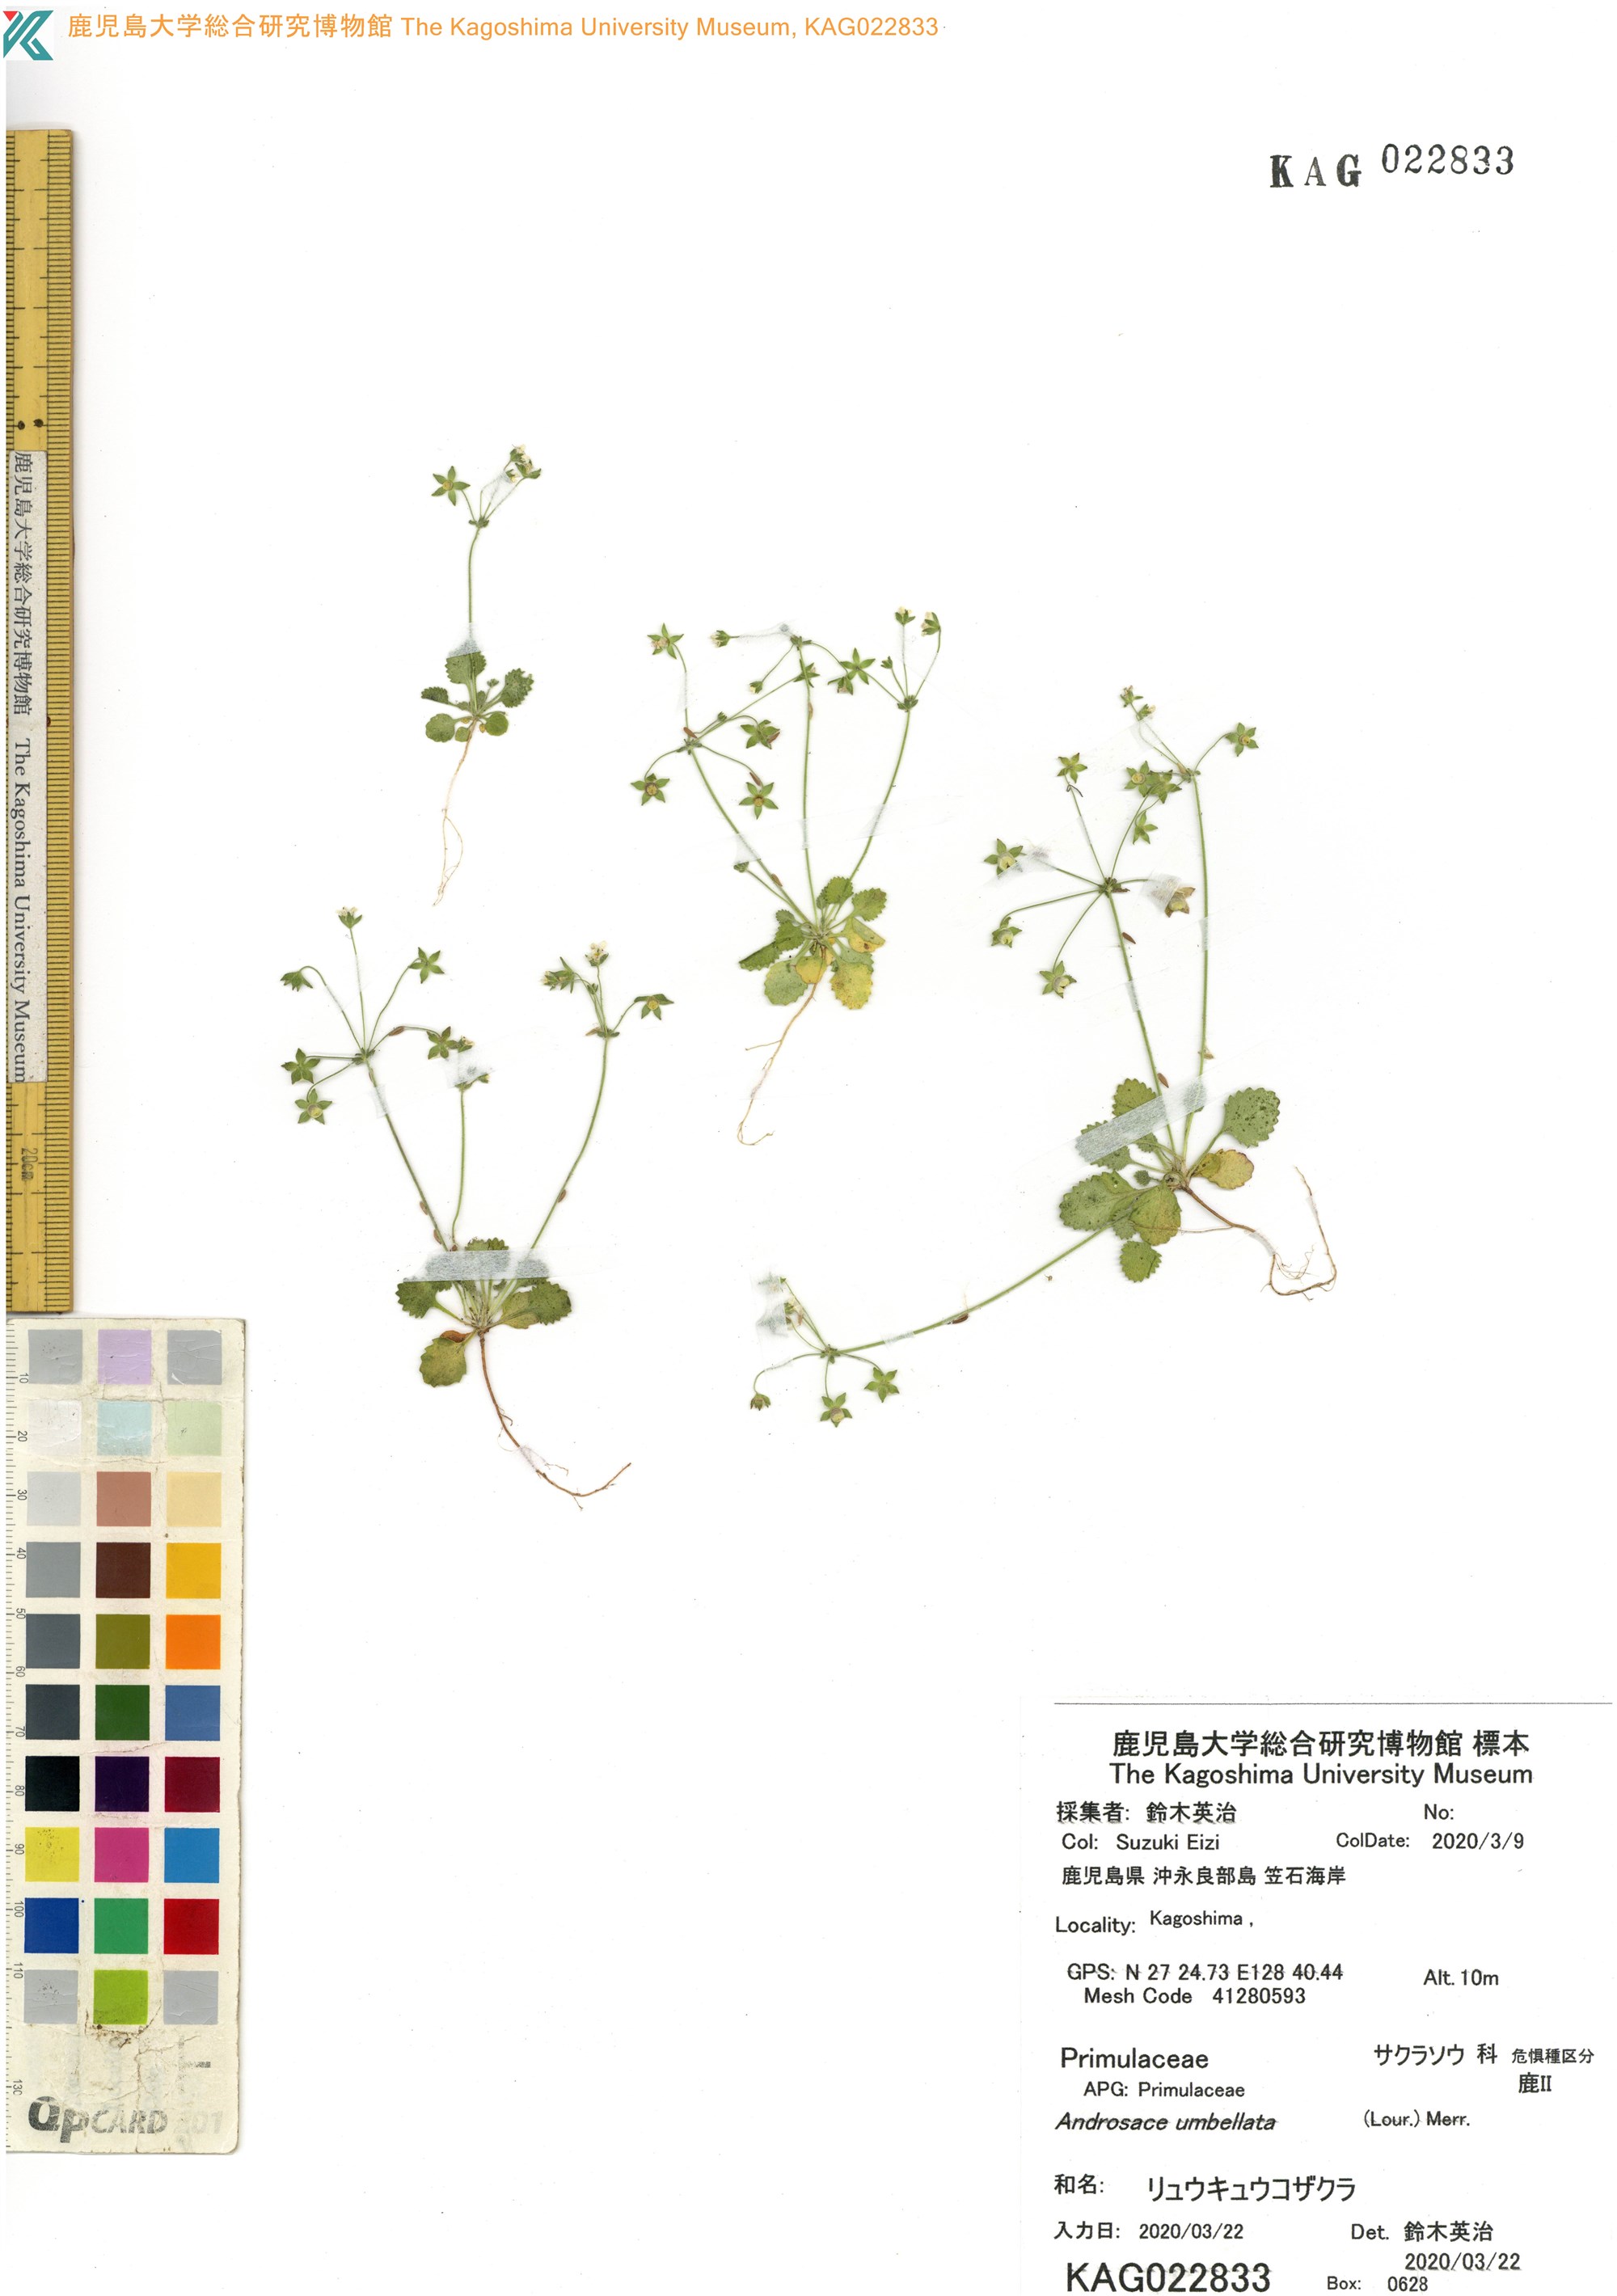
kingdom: Plantae
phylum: Tracheophyta
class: Magnoliopsida
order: Ericales
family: Primulaceae
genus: Androsace
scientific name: Androsace umbellata
